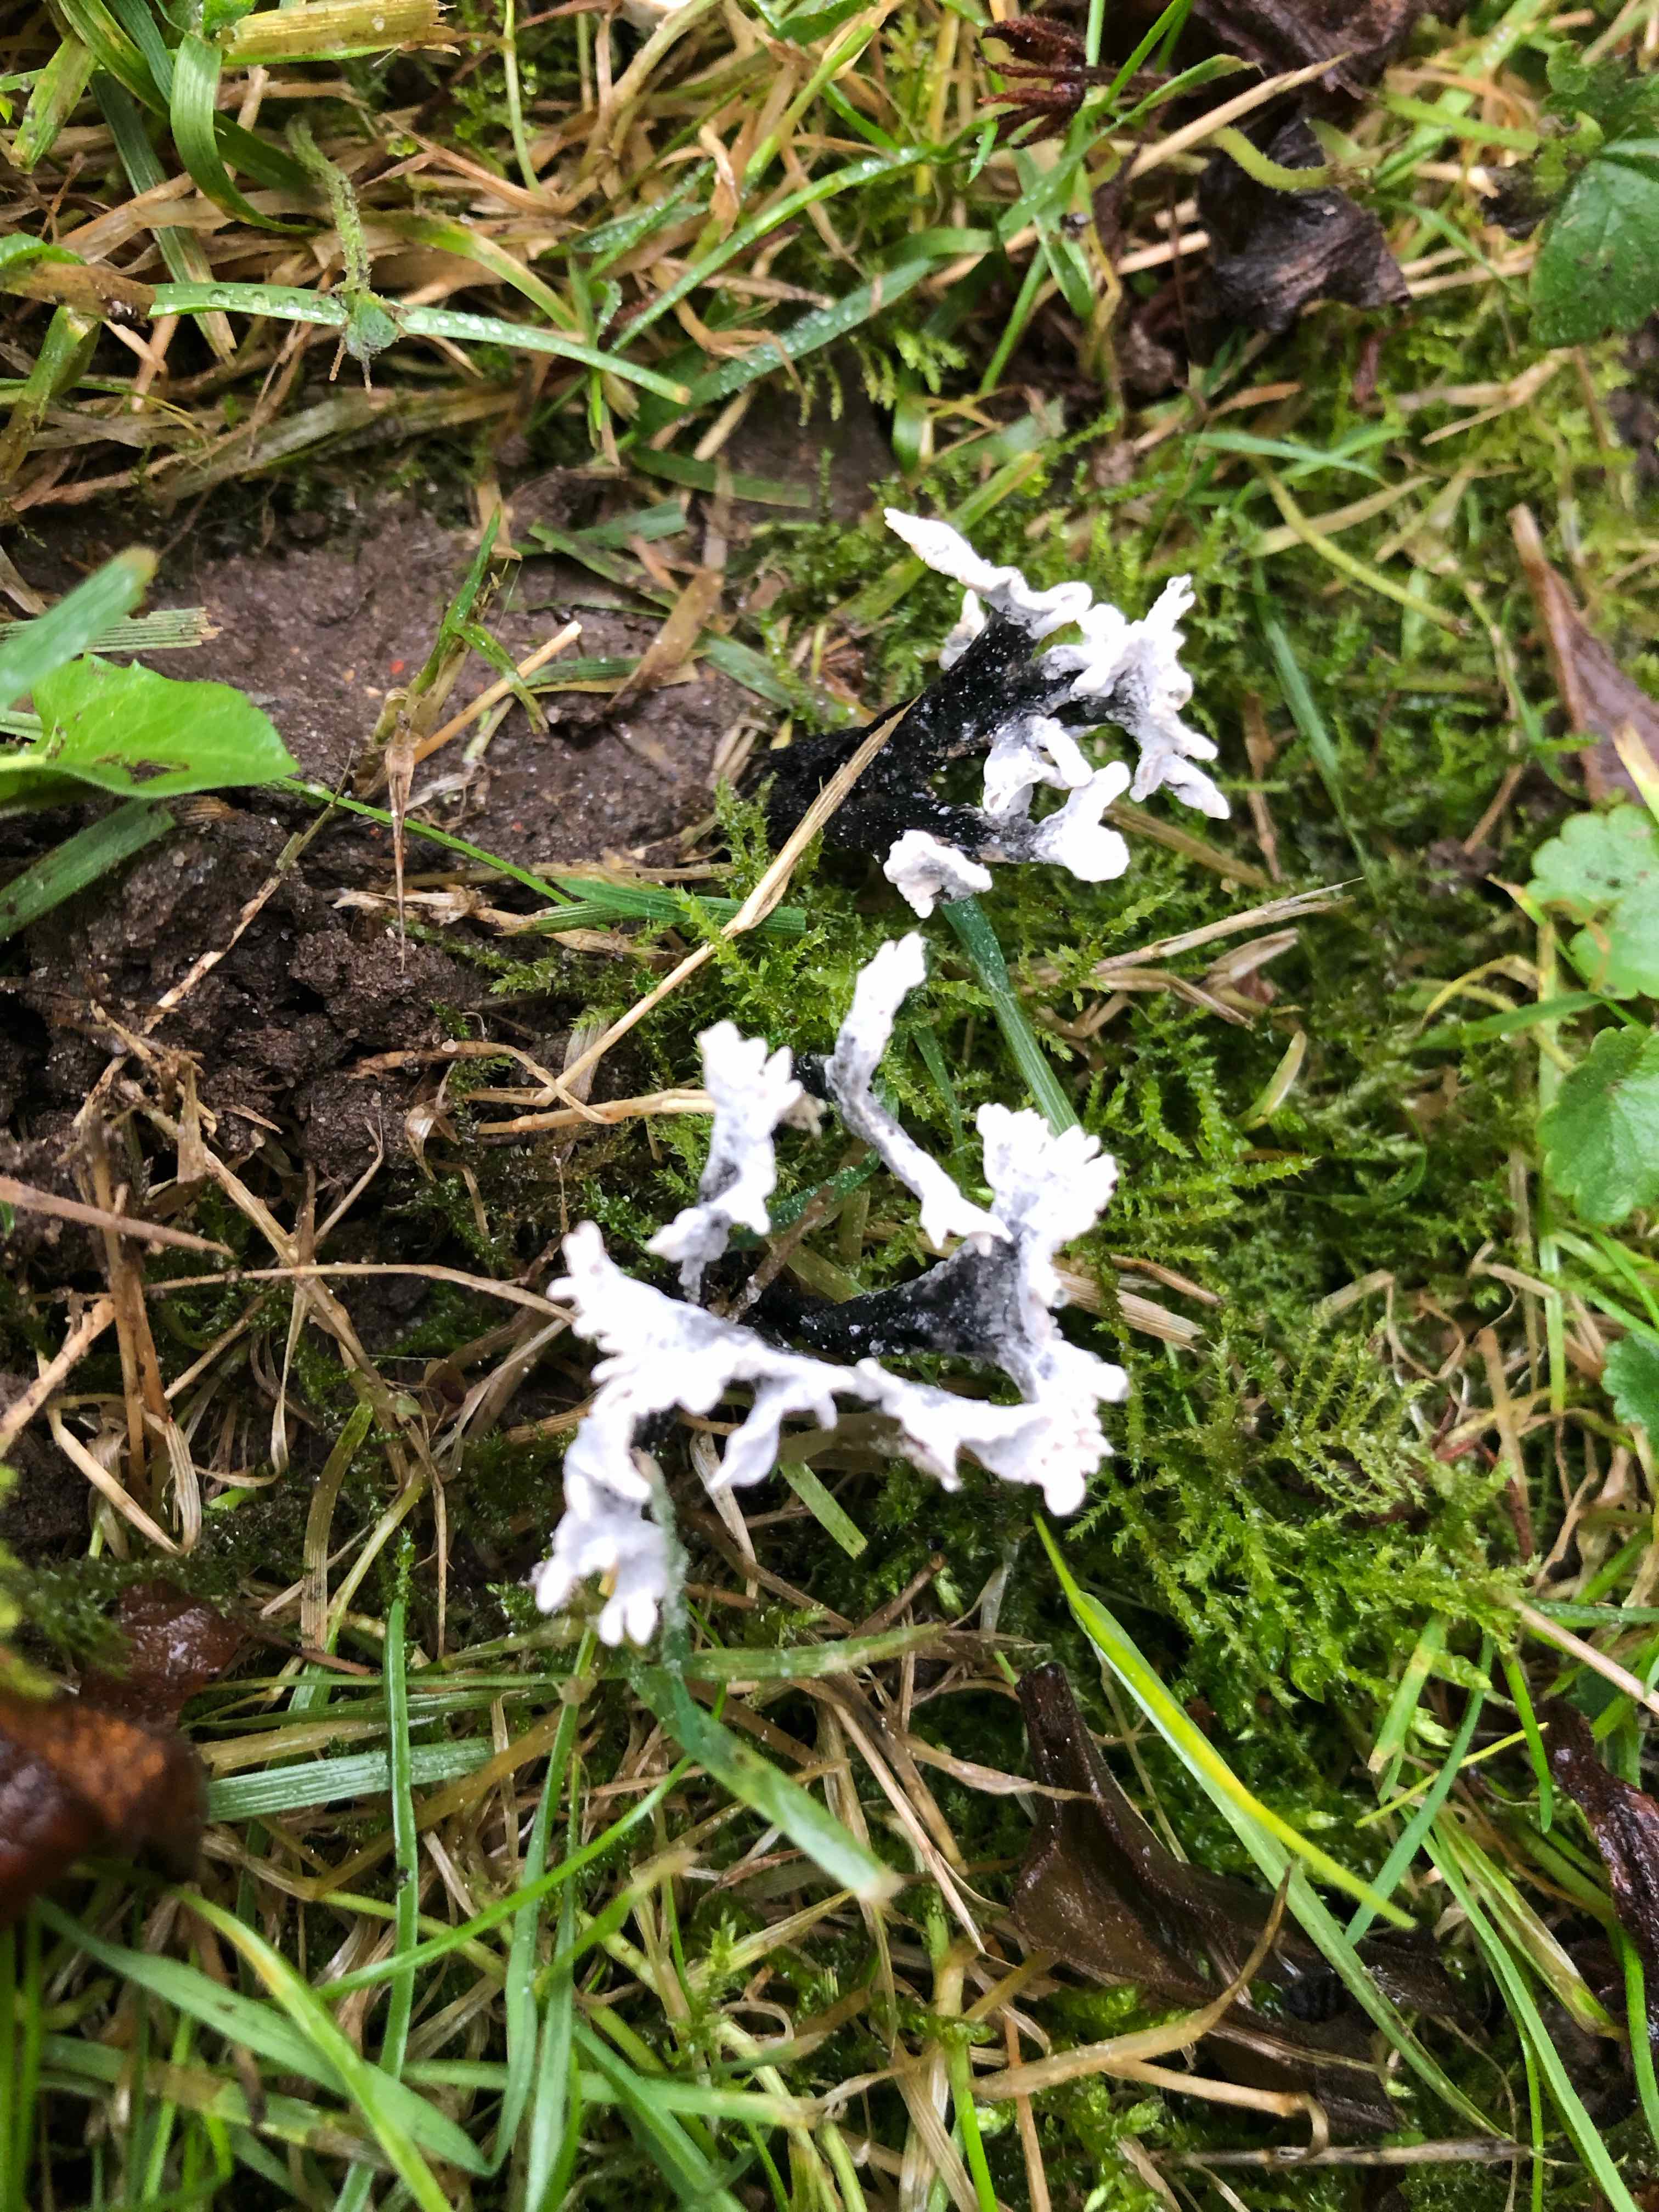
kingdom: Fungi
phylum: Ascomycota
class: Sordariomycetes
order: Xylariales
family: Xylariaceae
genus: Xylaria
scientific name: Xylaria hypoxylon
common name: grenet stødsvamp
